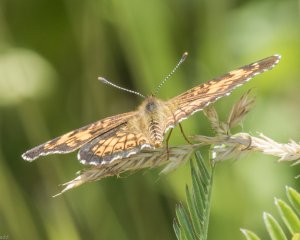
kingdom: Animalia
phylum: Arthropoda
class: Insecta
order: Lepidoptera
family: Nymphalidae
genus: Chlosyne
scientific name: Chlosyne harrisii
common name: Harris's Checkerspot
